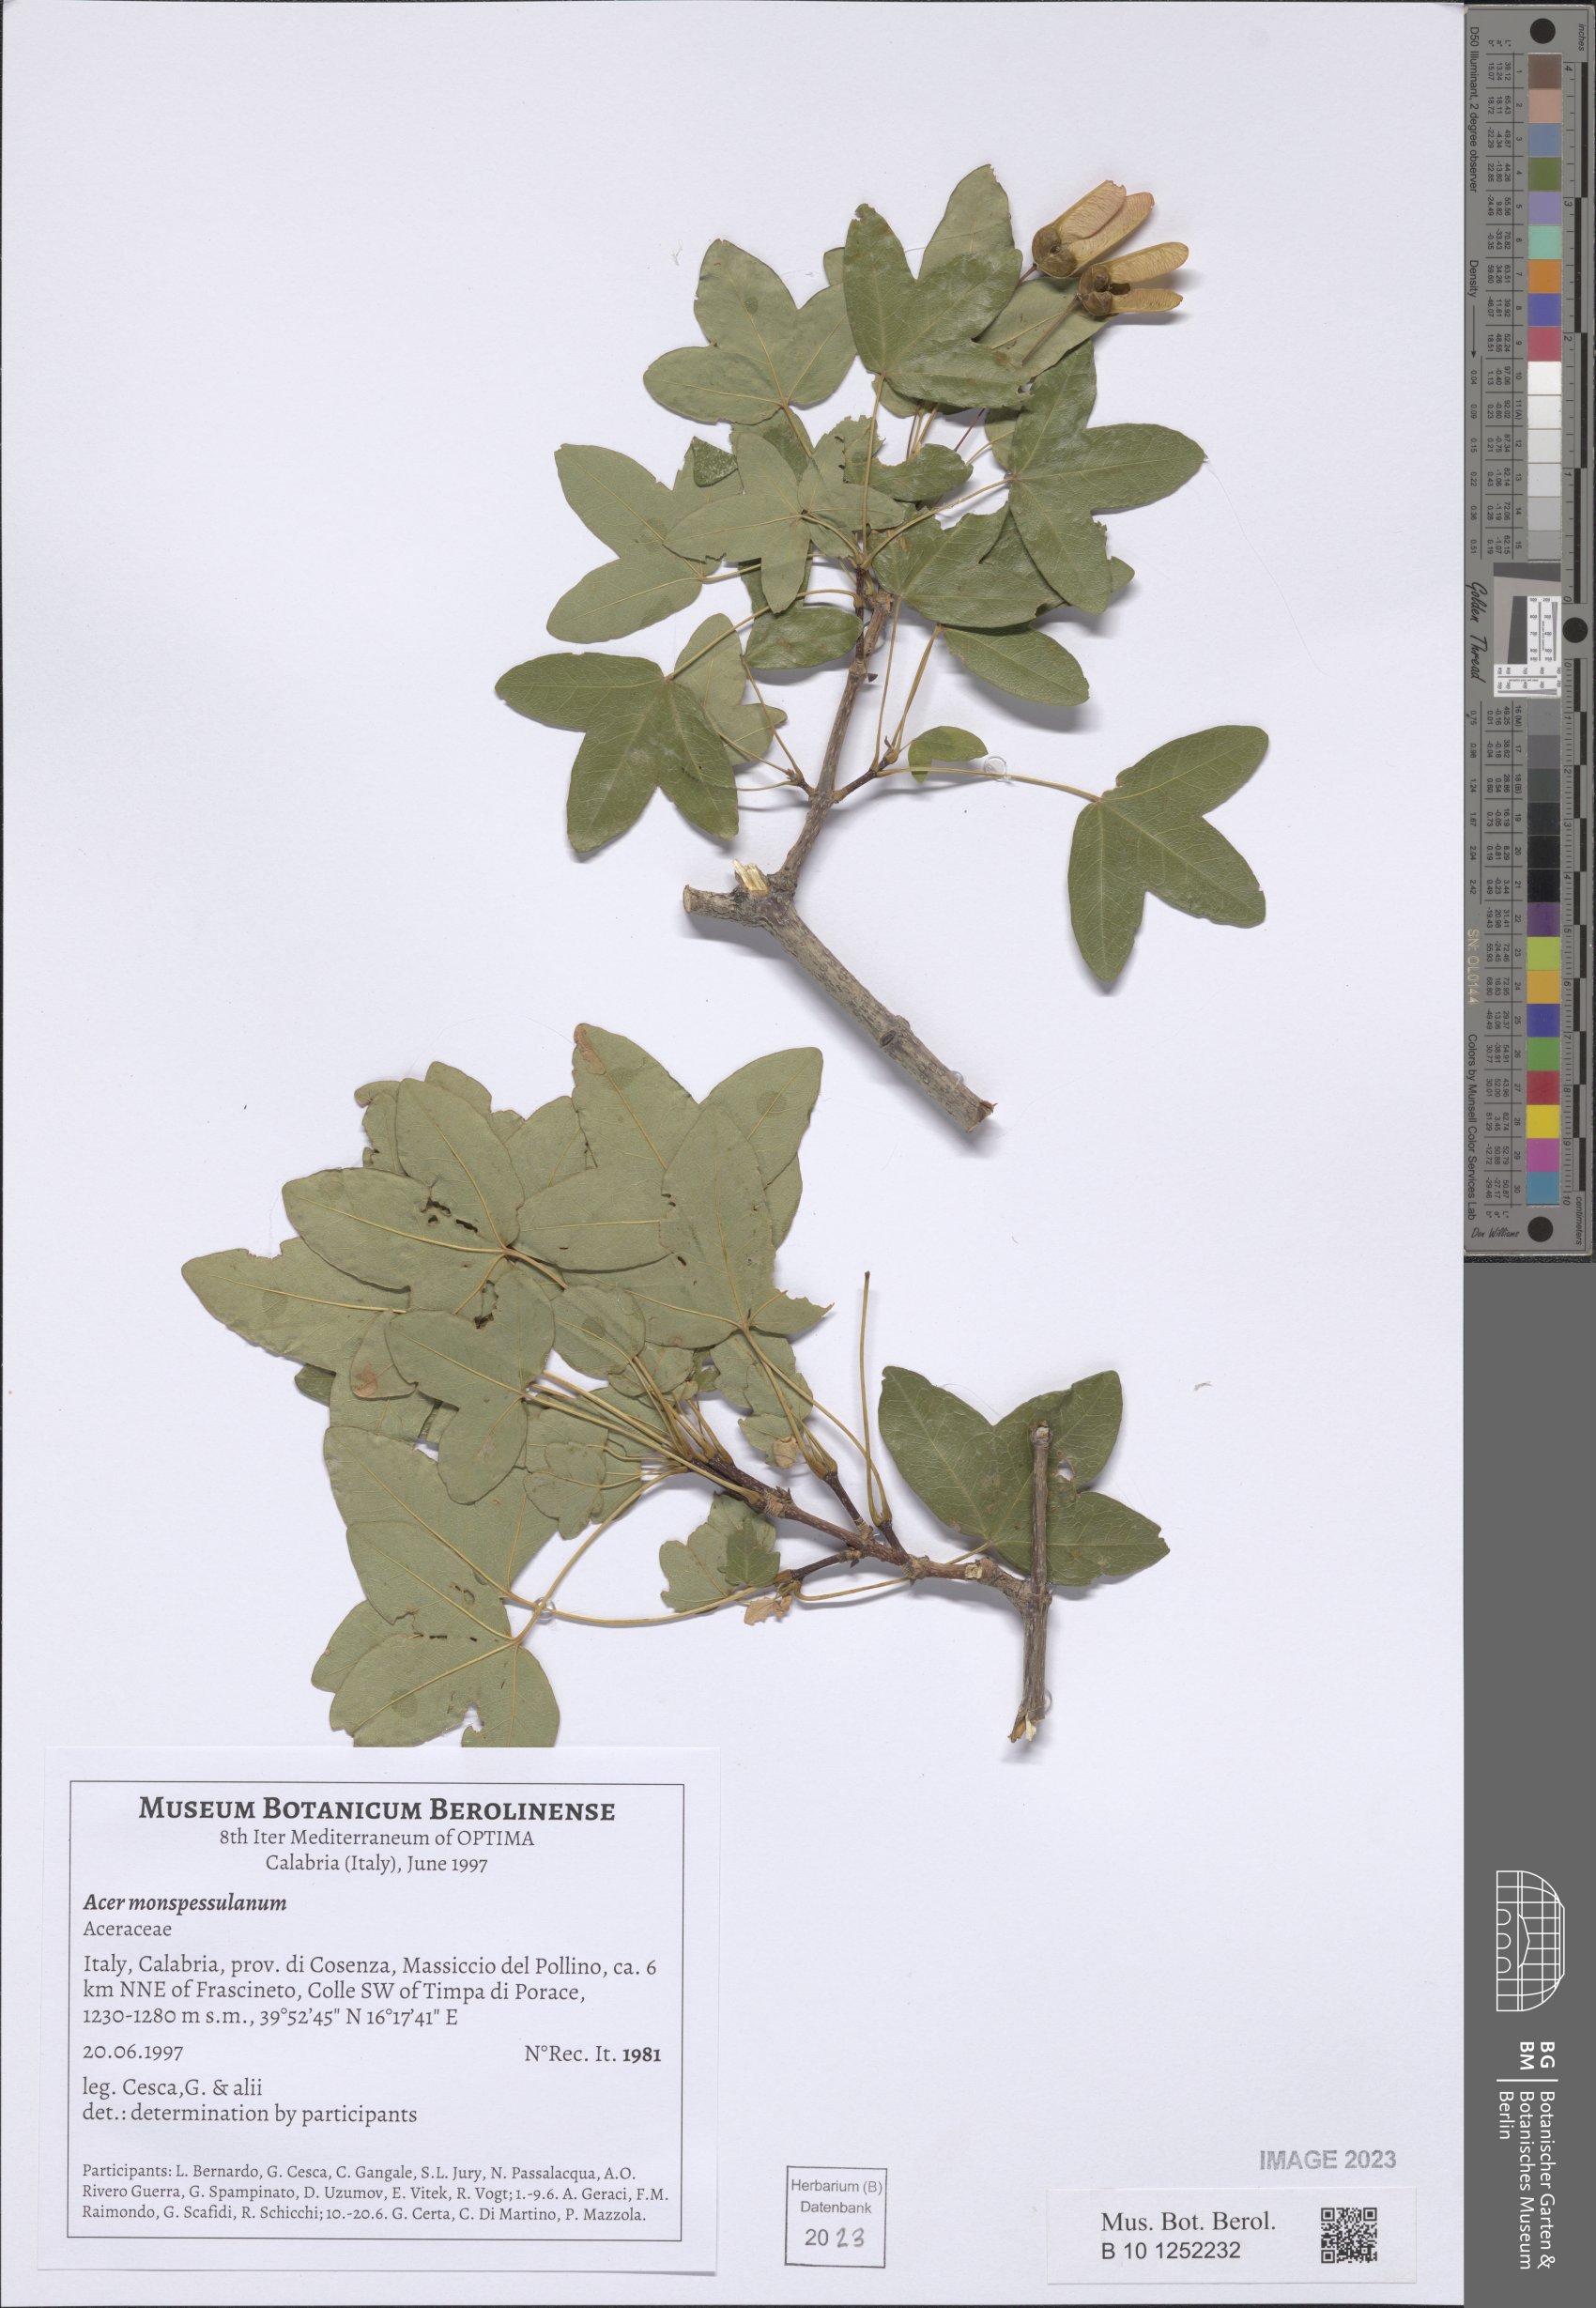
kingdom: Plantae
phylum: Tracheophyta
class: Magnoliopsida
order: Sapindales
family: Sapindaceae
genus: Acer
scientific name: Acer monspessulanum
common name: Montpellier maple
